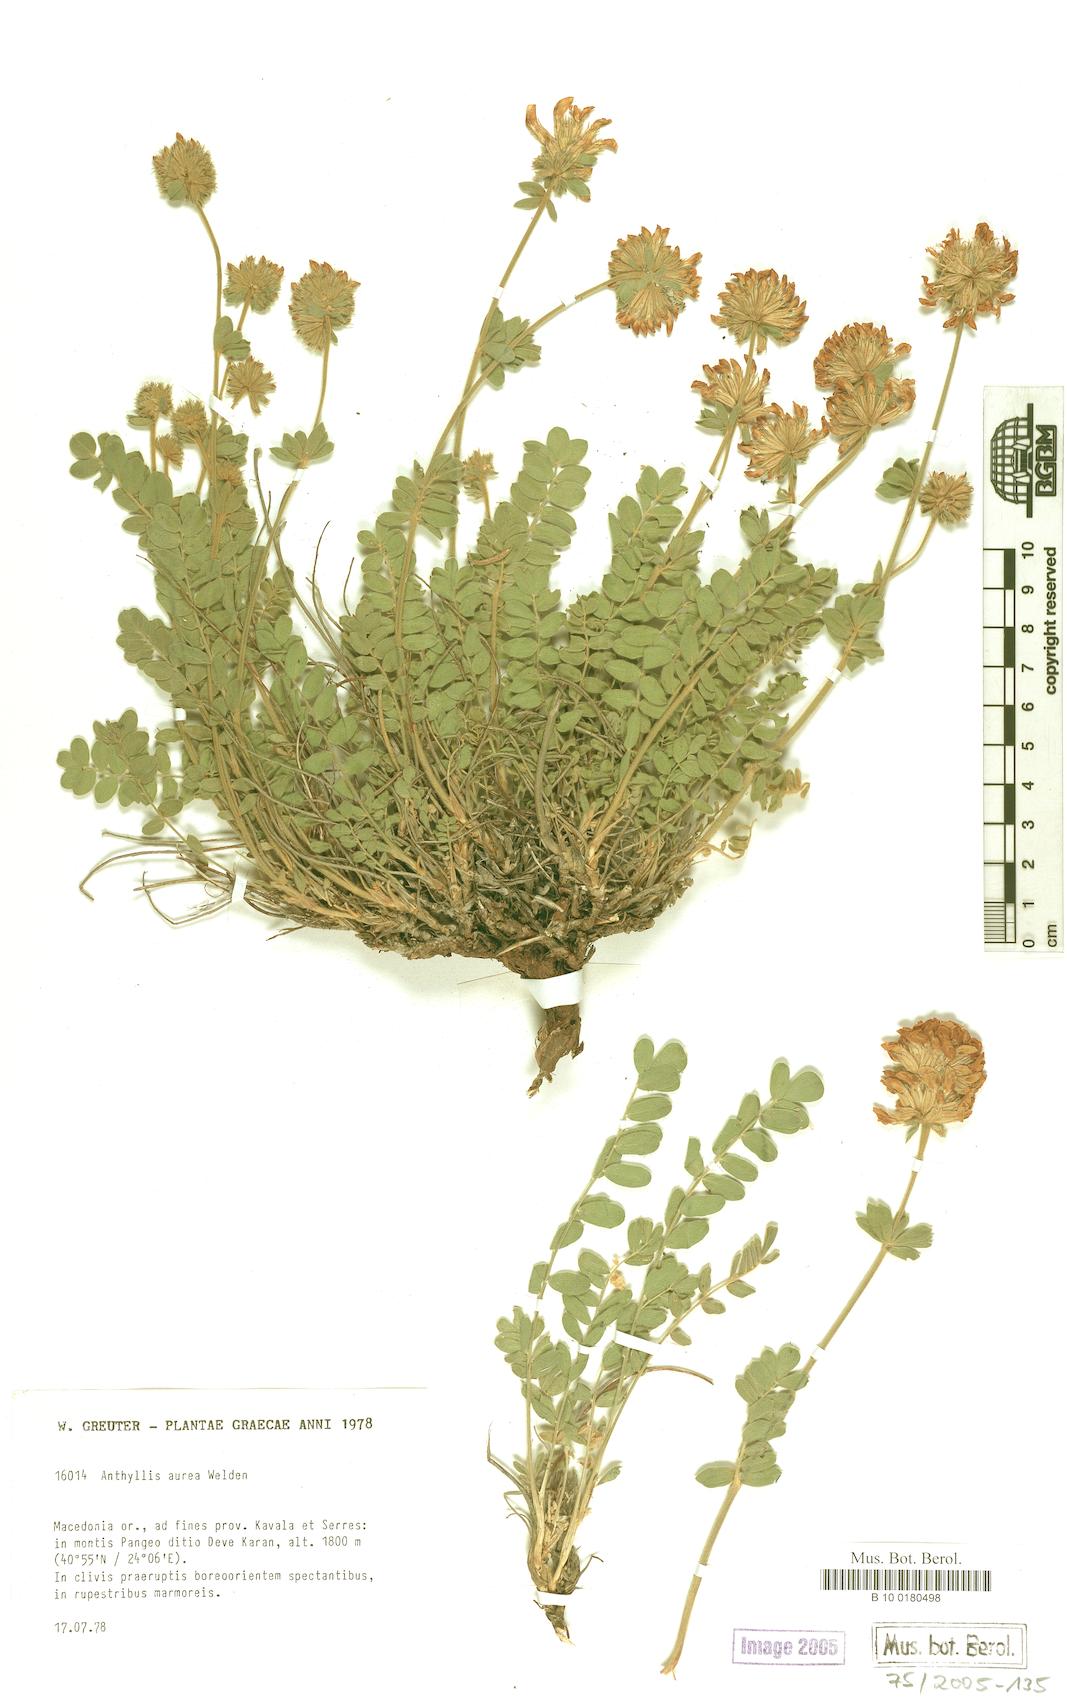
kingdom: Plantae
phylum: Tracheophyta
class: Magnoliopsida
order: Fabales
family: Fabaceae
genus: Anthyllis
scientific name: Anthyllis aurea
